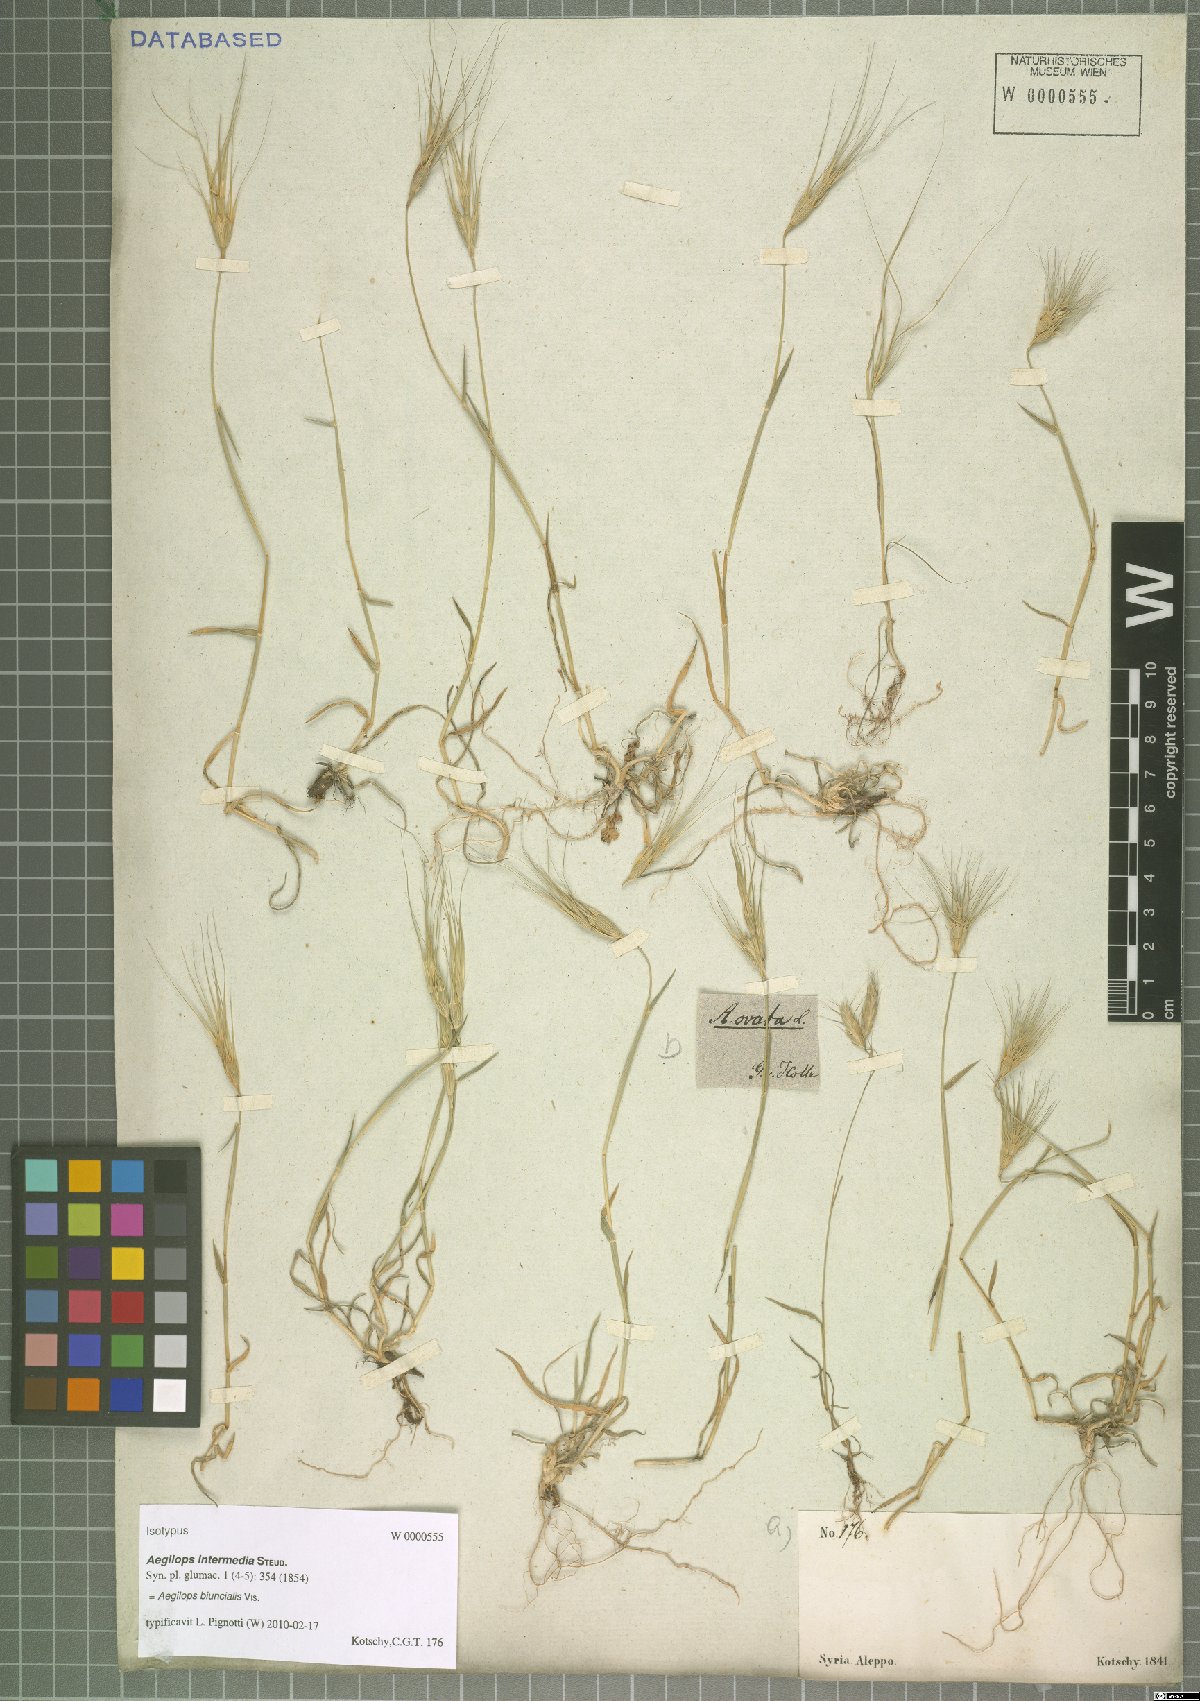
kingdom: Plantae
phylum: Tracheophyta
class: Liliopsida
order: Poales
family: Poaceae
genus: Aegilops
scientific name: Aegilops biuncialis
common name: Mediterranean aegilops
